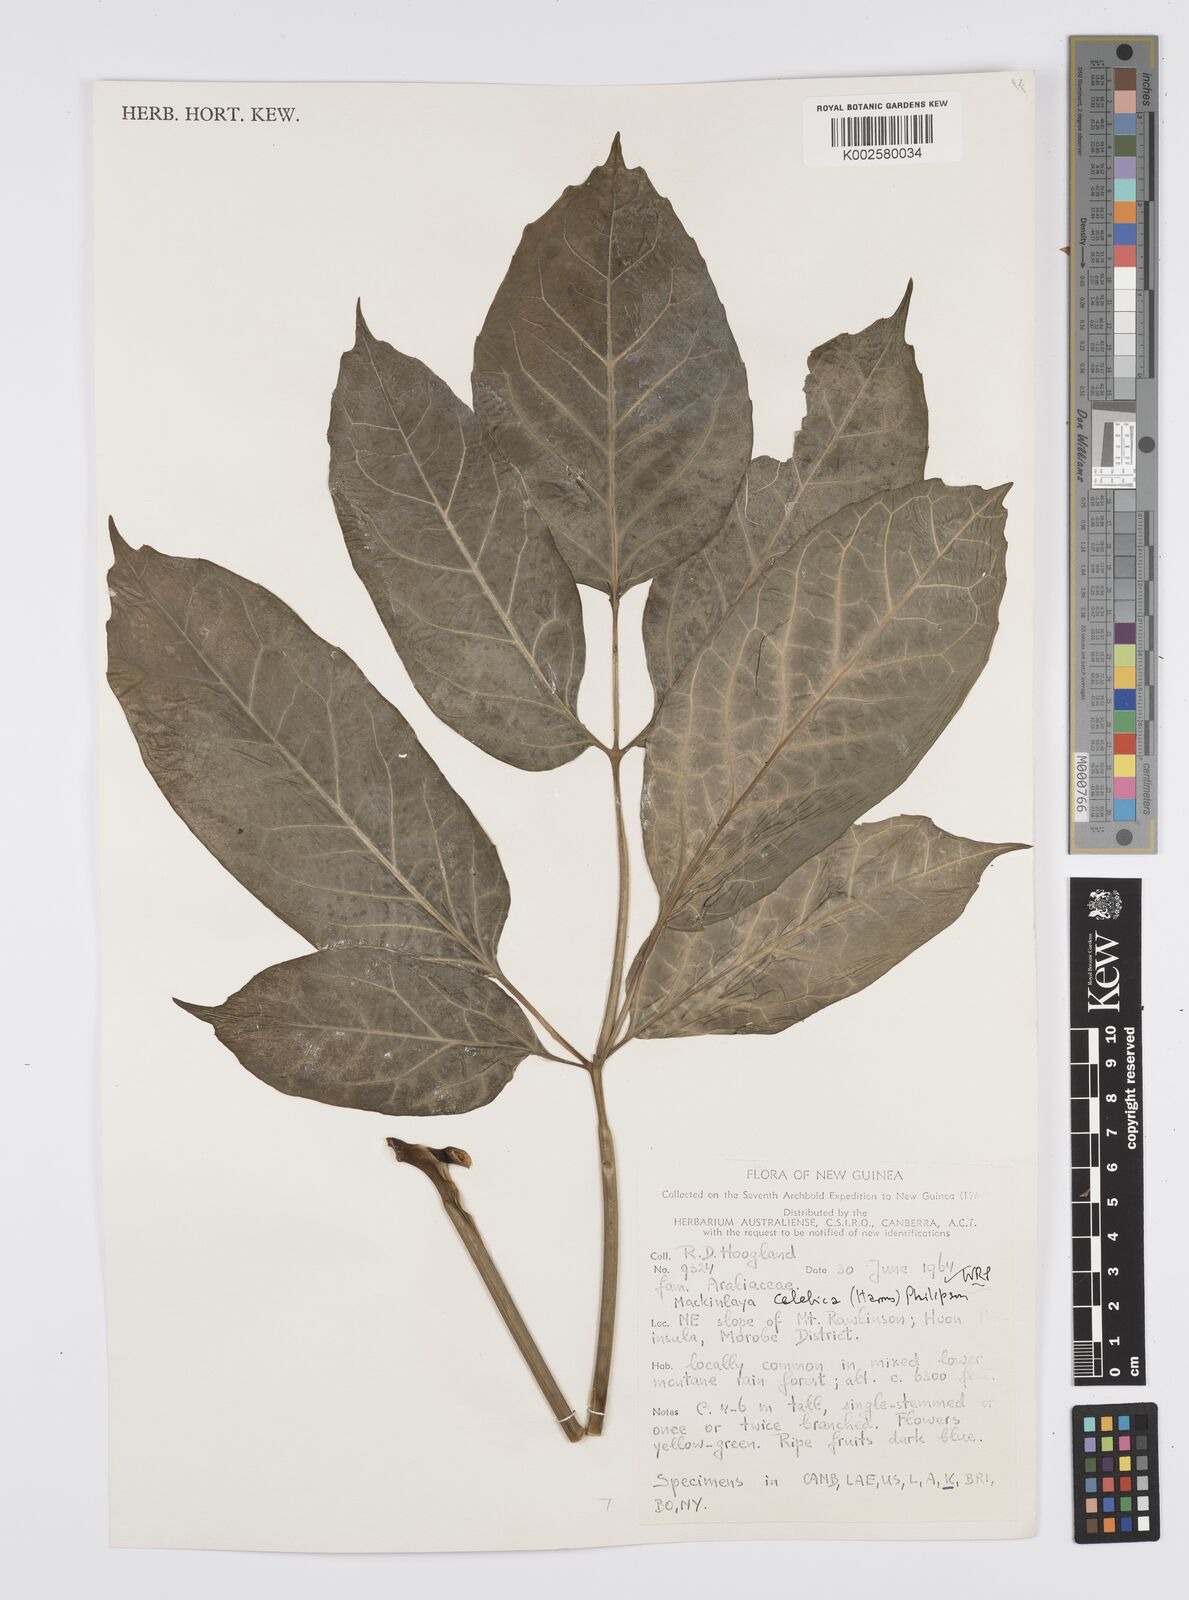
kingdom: Plantae
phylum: Tracheophyta
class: Magnoliopsida
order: Apiales
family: Apiaceae
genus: Mackinlaya
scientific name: Mackinlaya celebica
